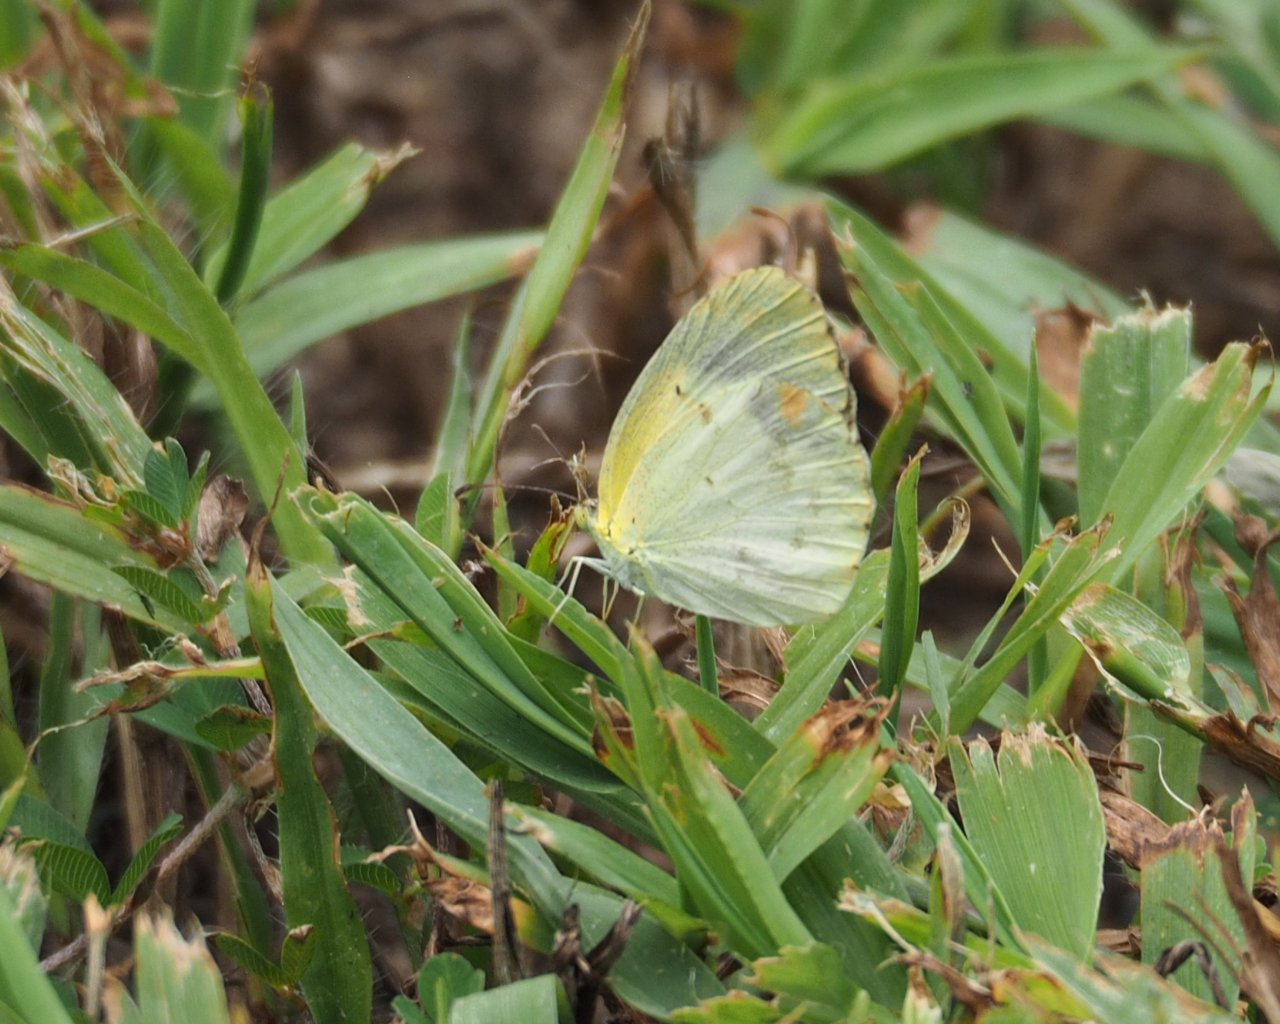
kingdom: Animalia
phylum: Arthropoda
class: Insecta
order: Lepidoptera
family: Pieridae
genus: Pyrisitia
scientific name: Pyrisitia lisa
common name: Little Yellow
